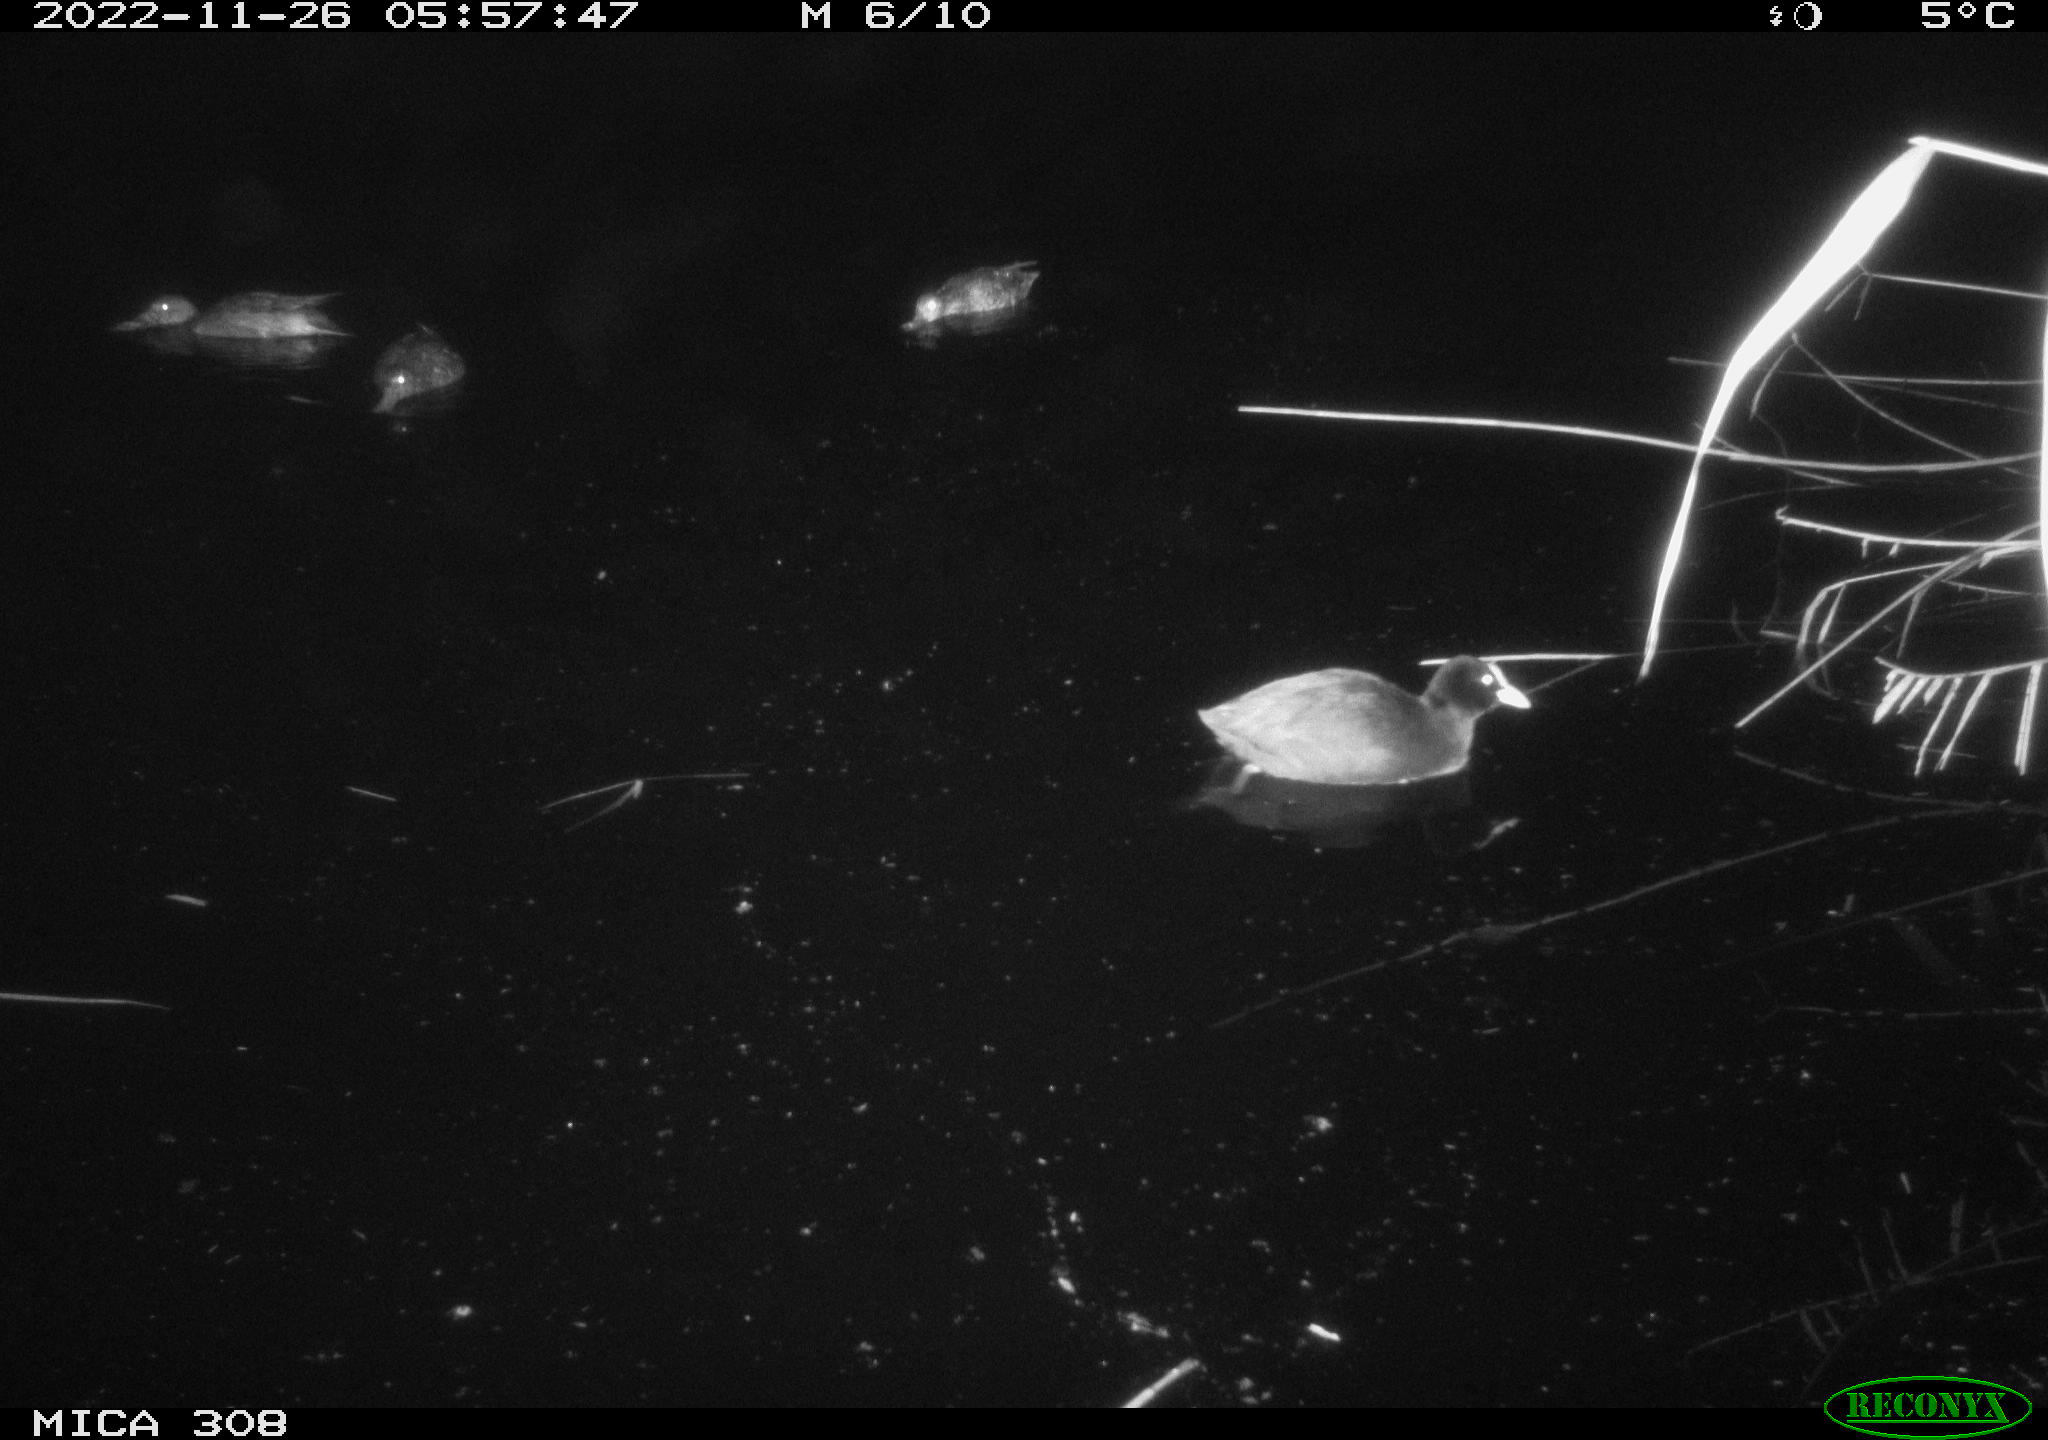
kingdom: Animalia
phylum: Chordata
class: Aves
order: Anseriformes
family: Anatidae
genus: Anas
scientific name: Anas
